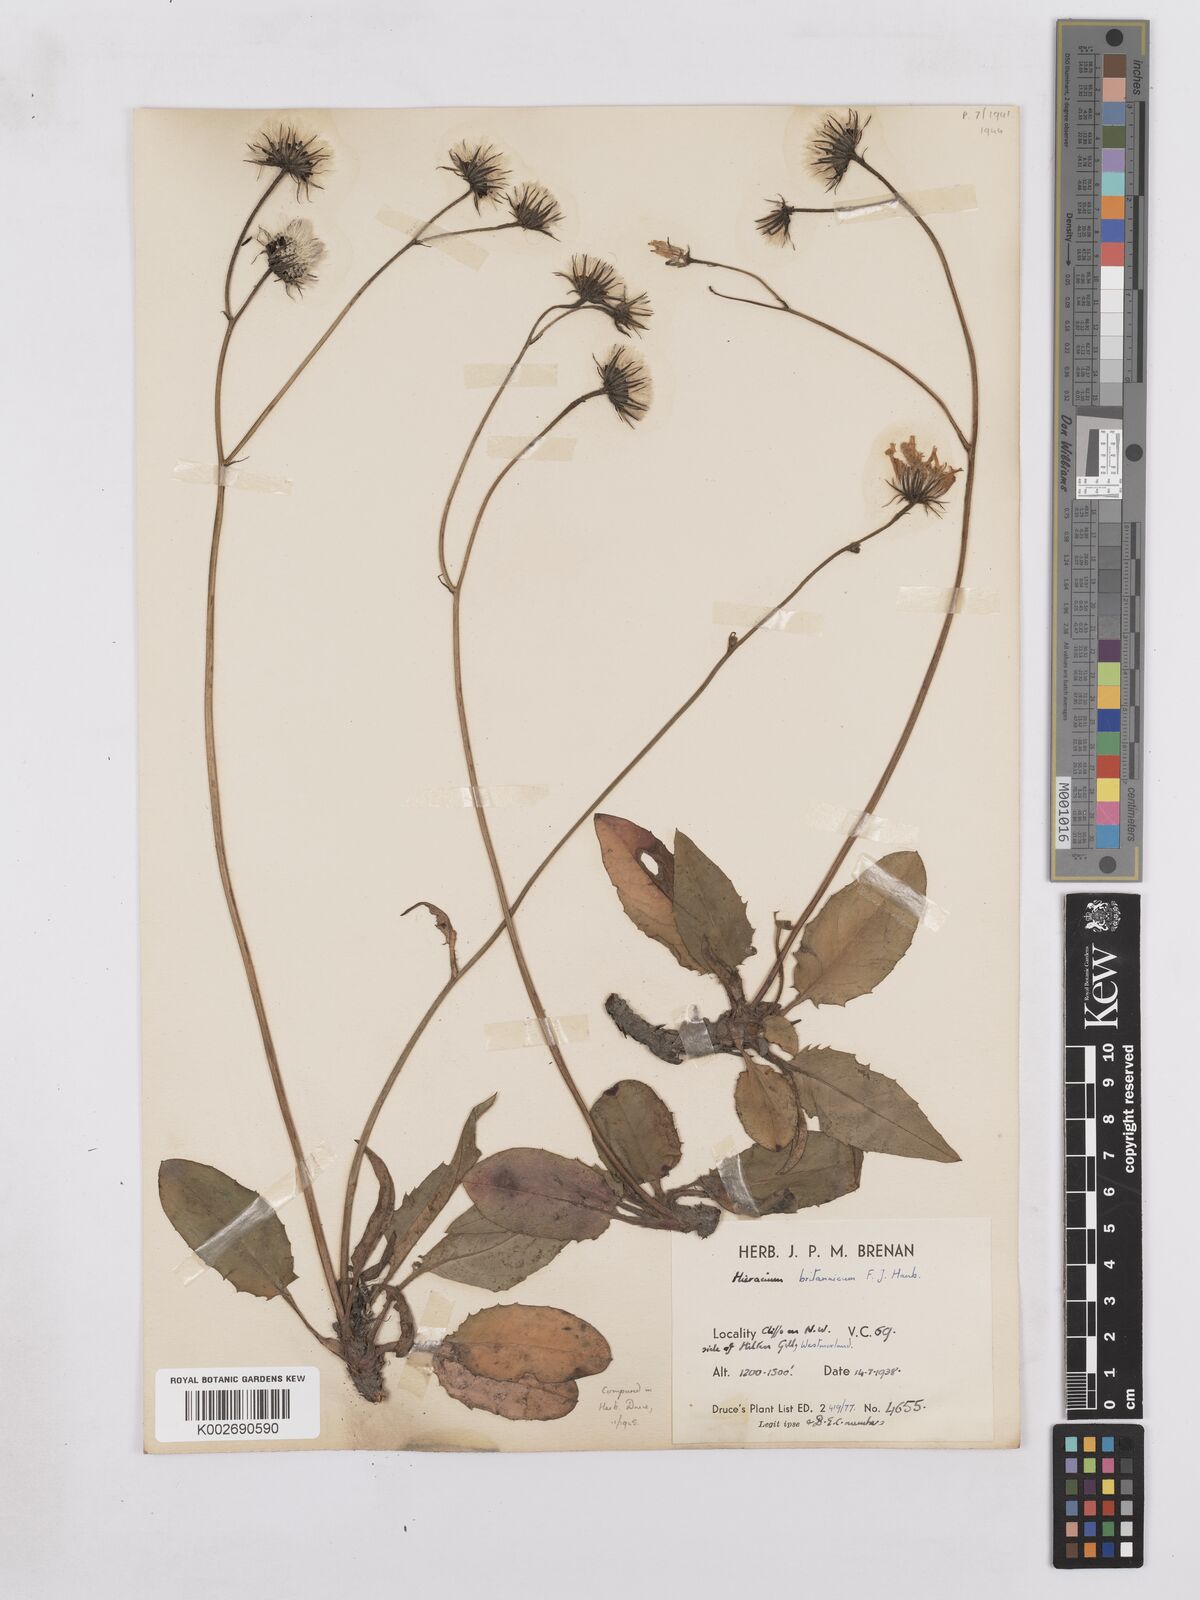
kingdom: Plantae
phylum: Tracheophyta
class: Magnoliopsida
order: Asterales
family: Asteraceae
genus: Hieracium
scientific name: Hieracium britannicum
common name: British hawkweed
